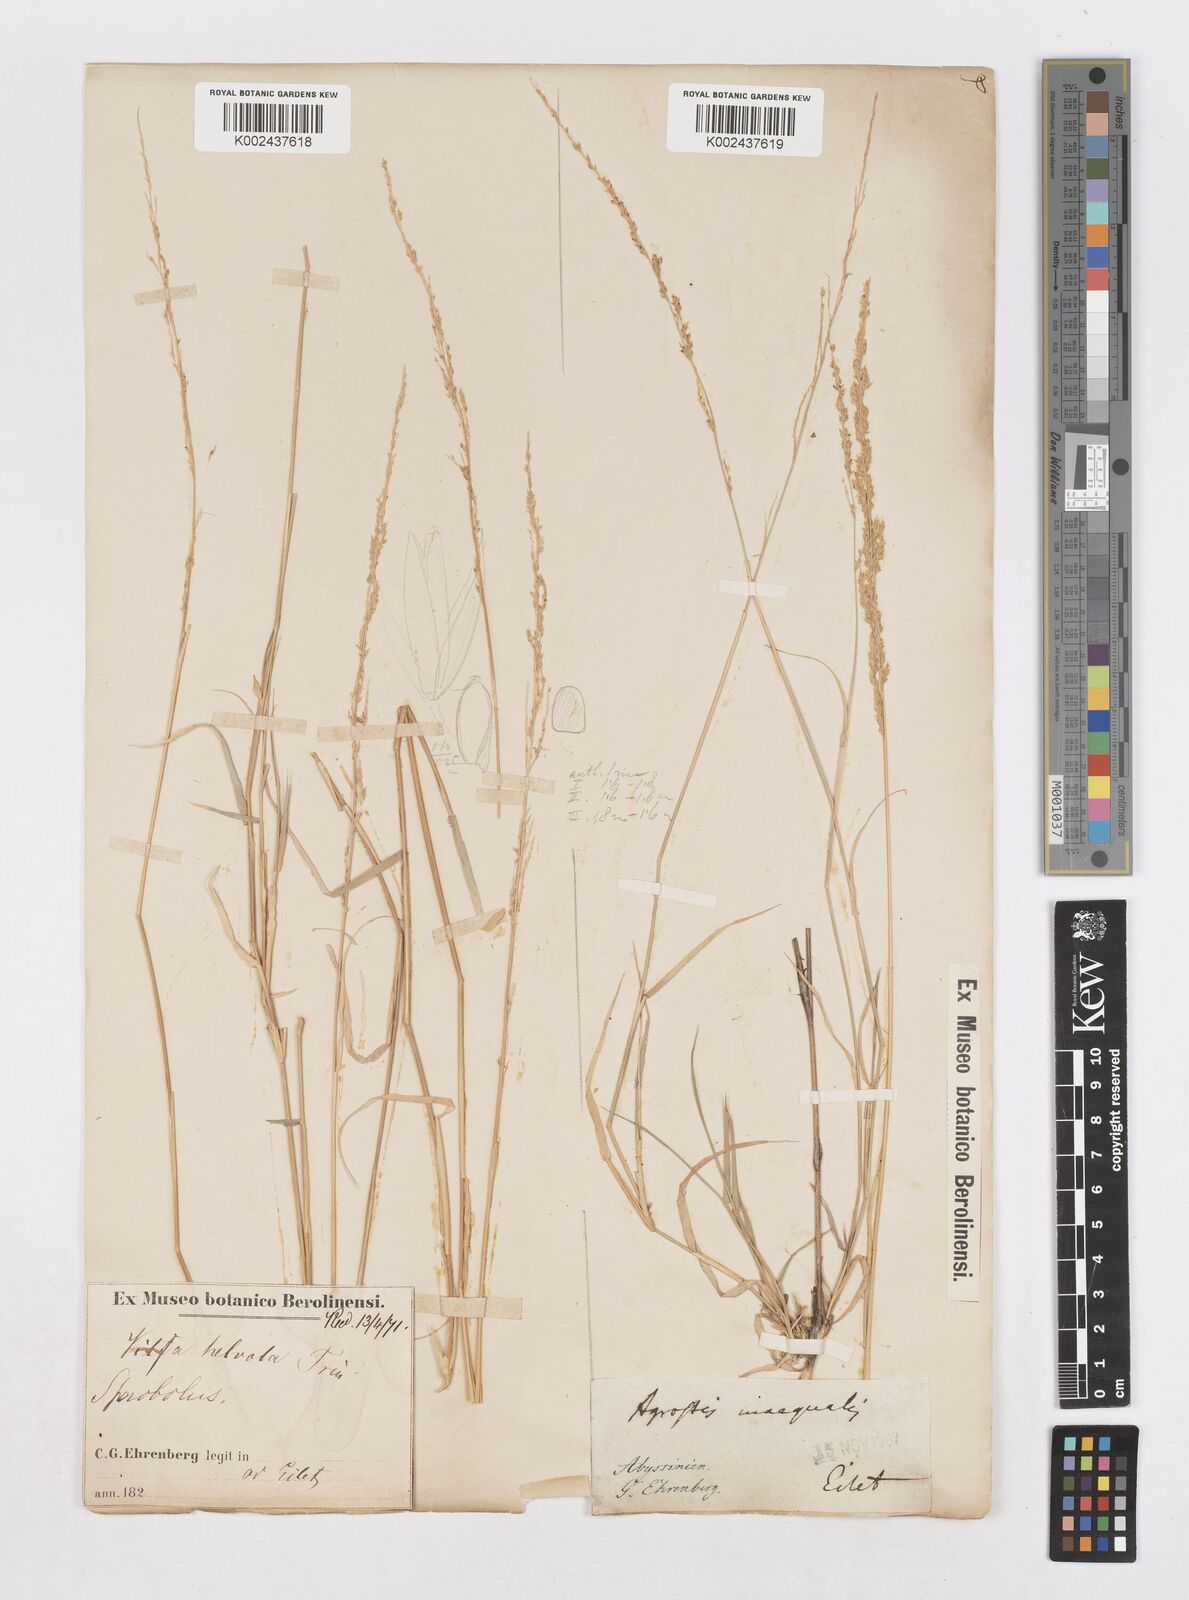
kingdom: Plantae
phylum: Tracheophyta
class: Liliopsida
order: Poales
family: Poaceae
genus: Sporobolus
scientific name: Sporobolus helvolus
